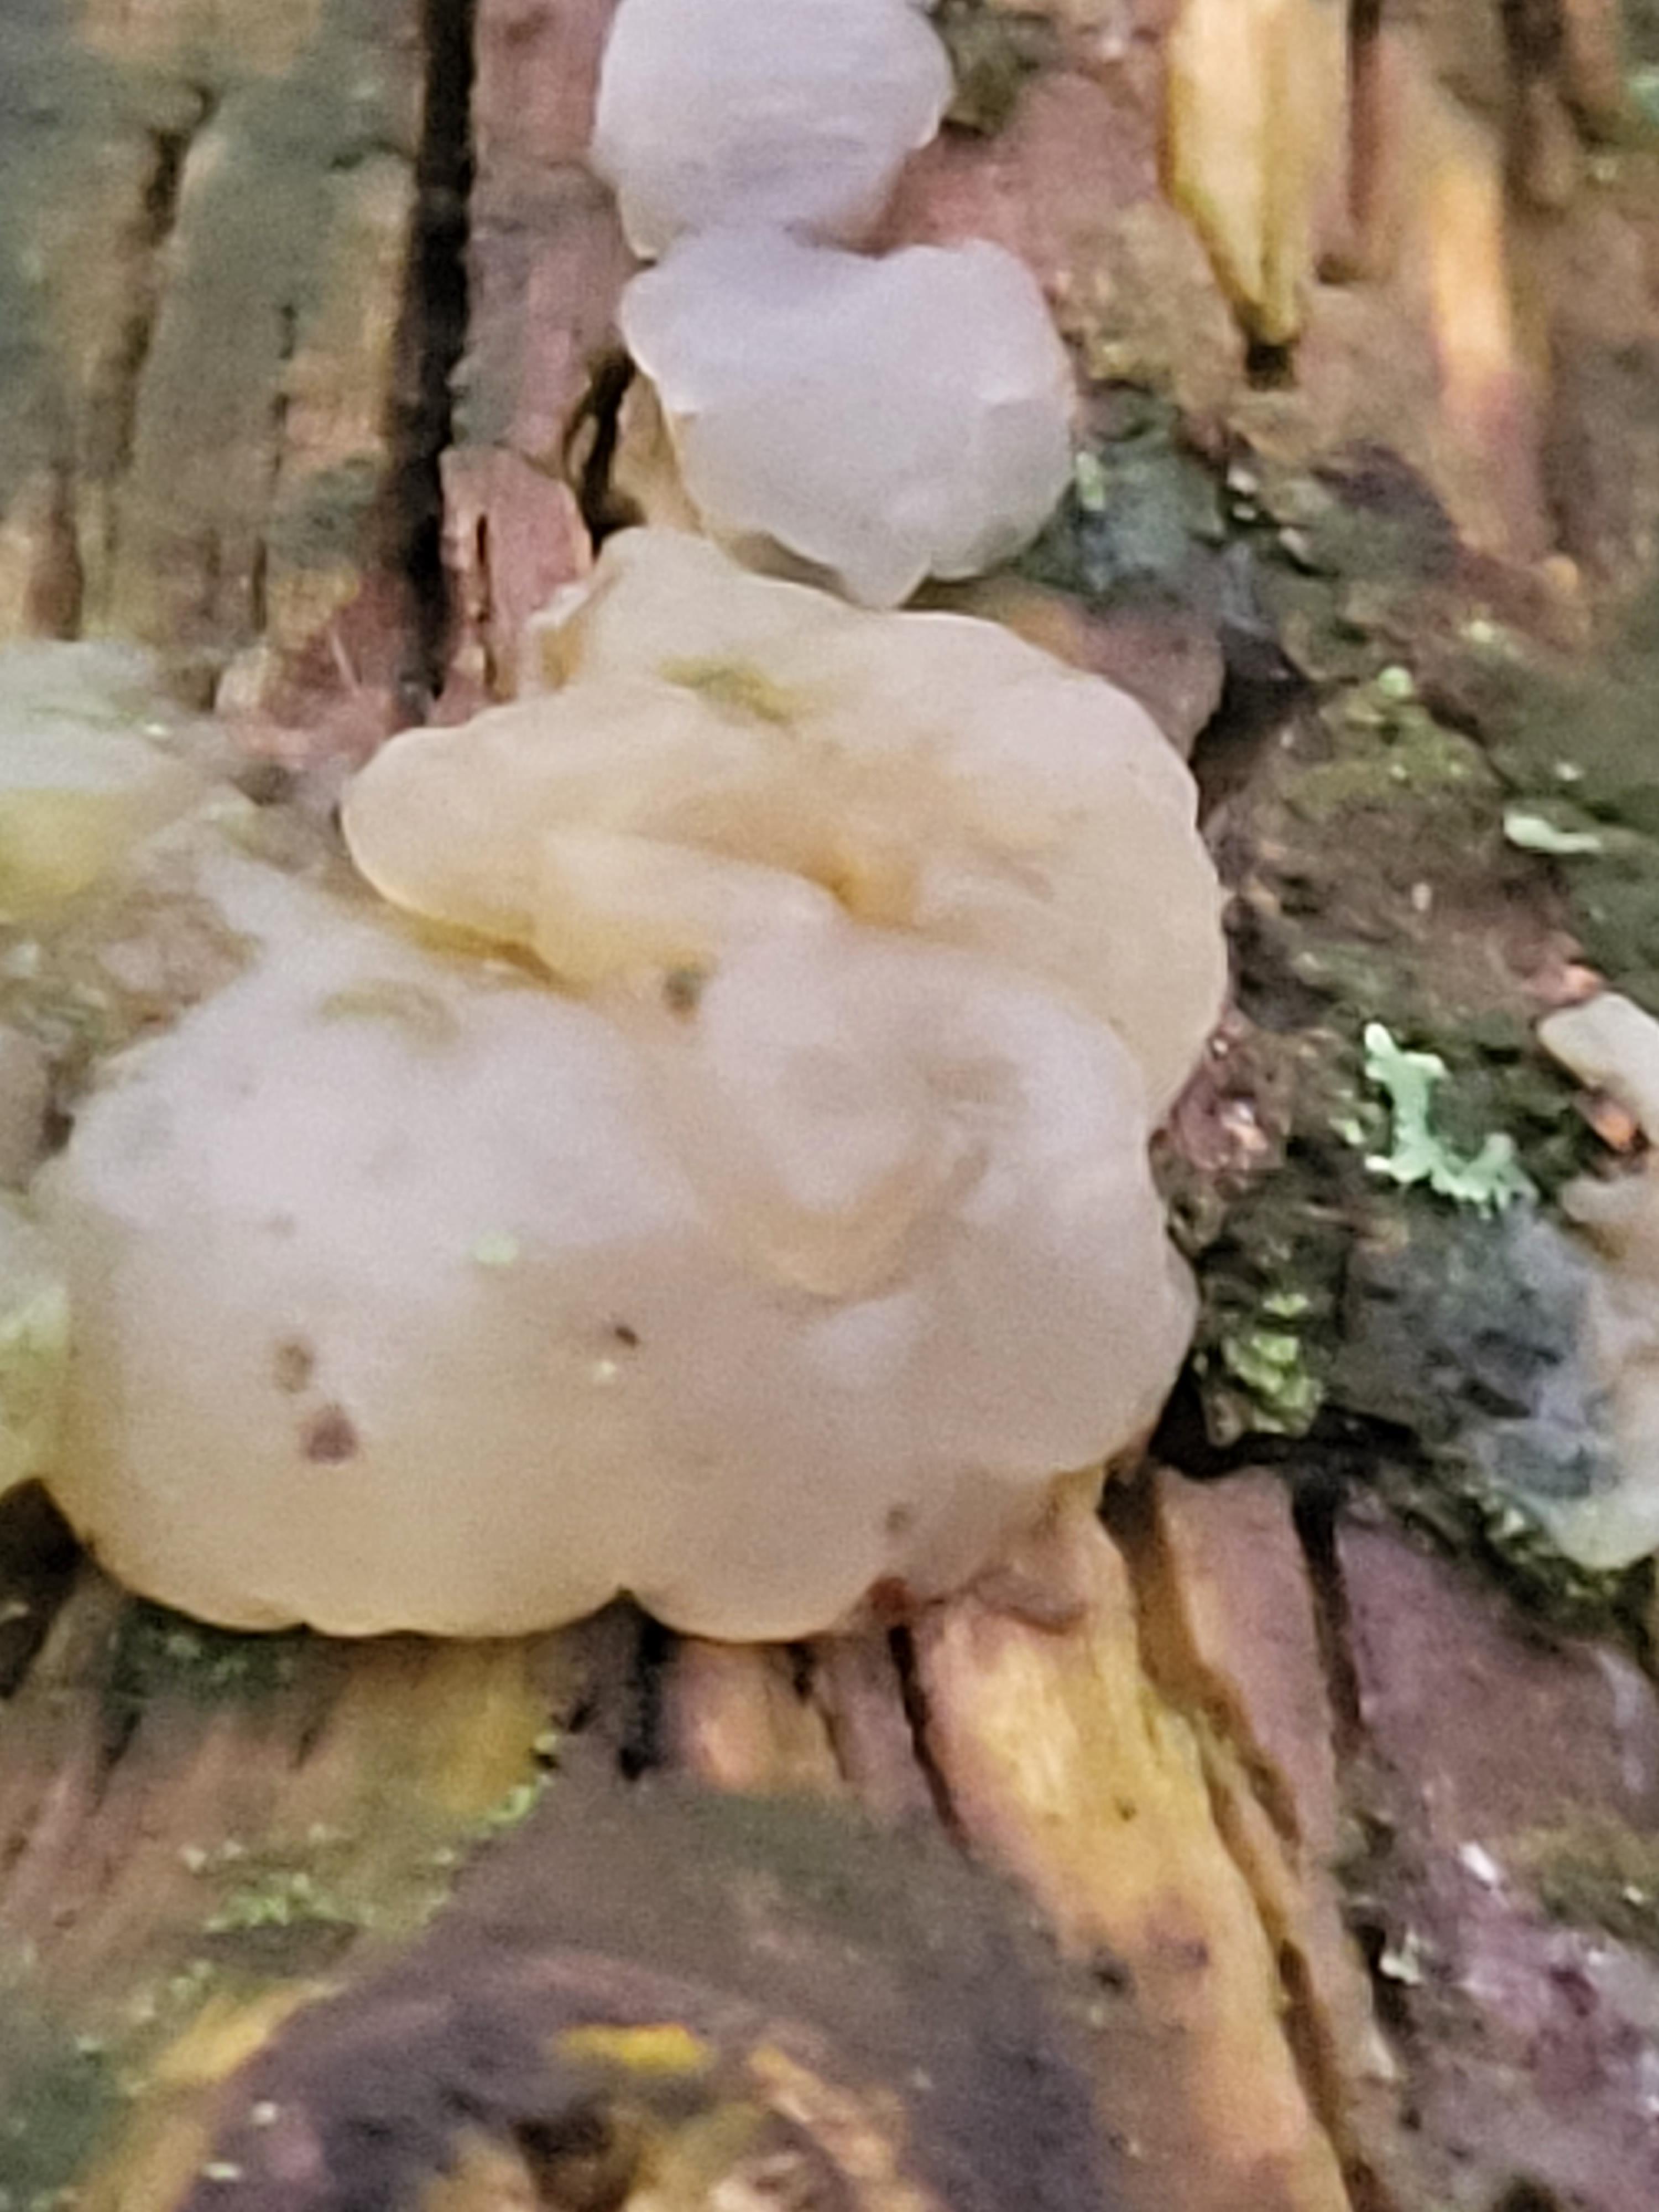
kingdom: Fungi
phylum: Basidiomycota
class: Agaricomycetes
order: Auriculariales
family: Hyaloriaceae
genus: Myxarium
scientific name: Myxarium
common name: bævretop
